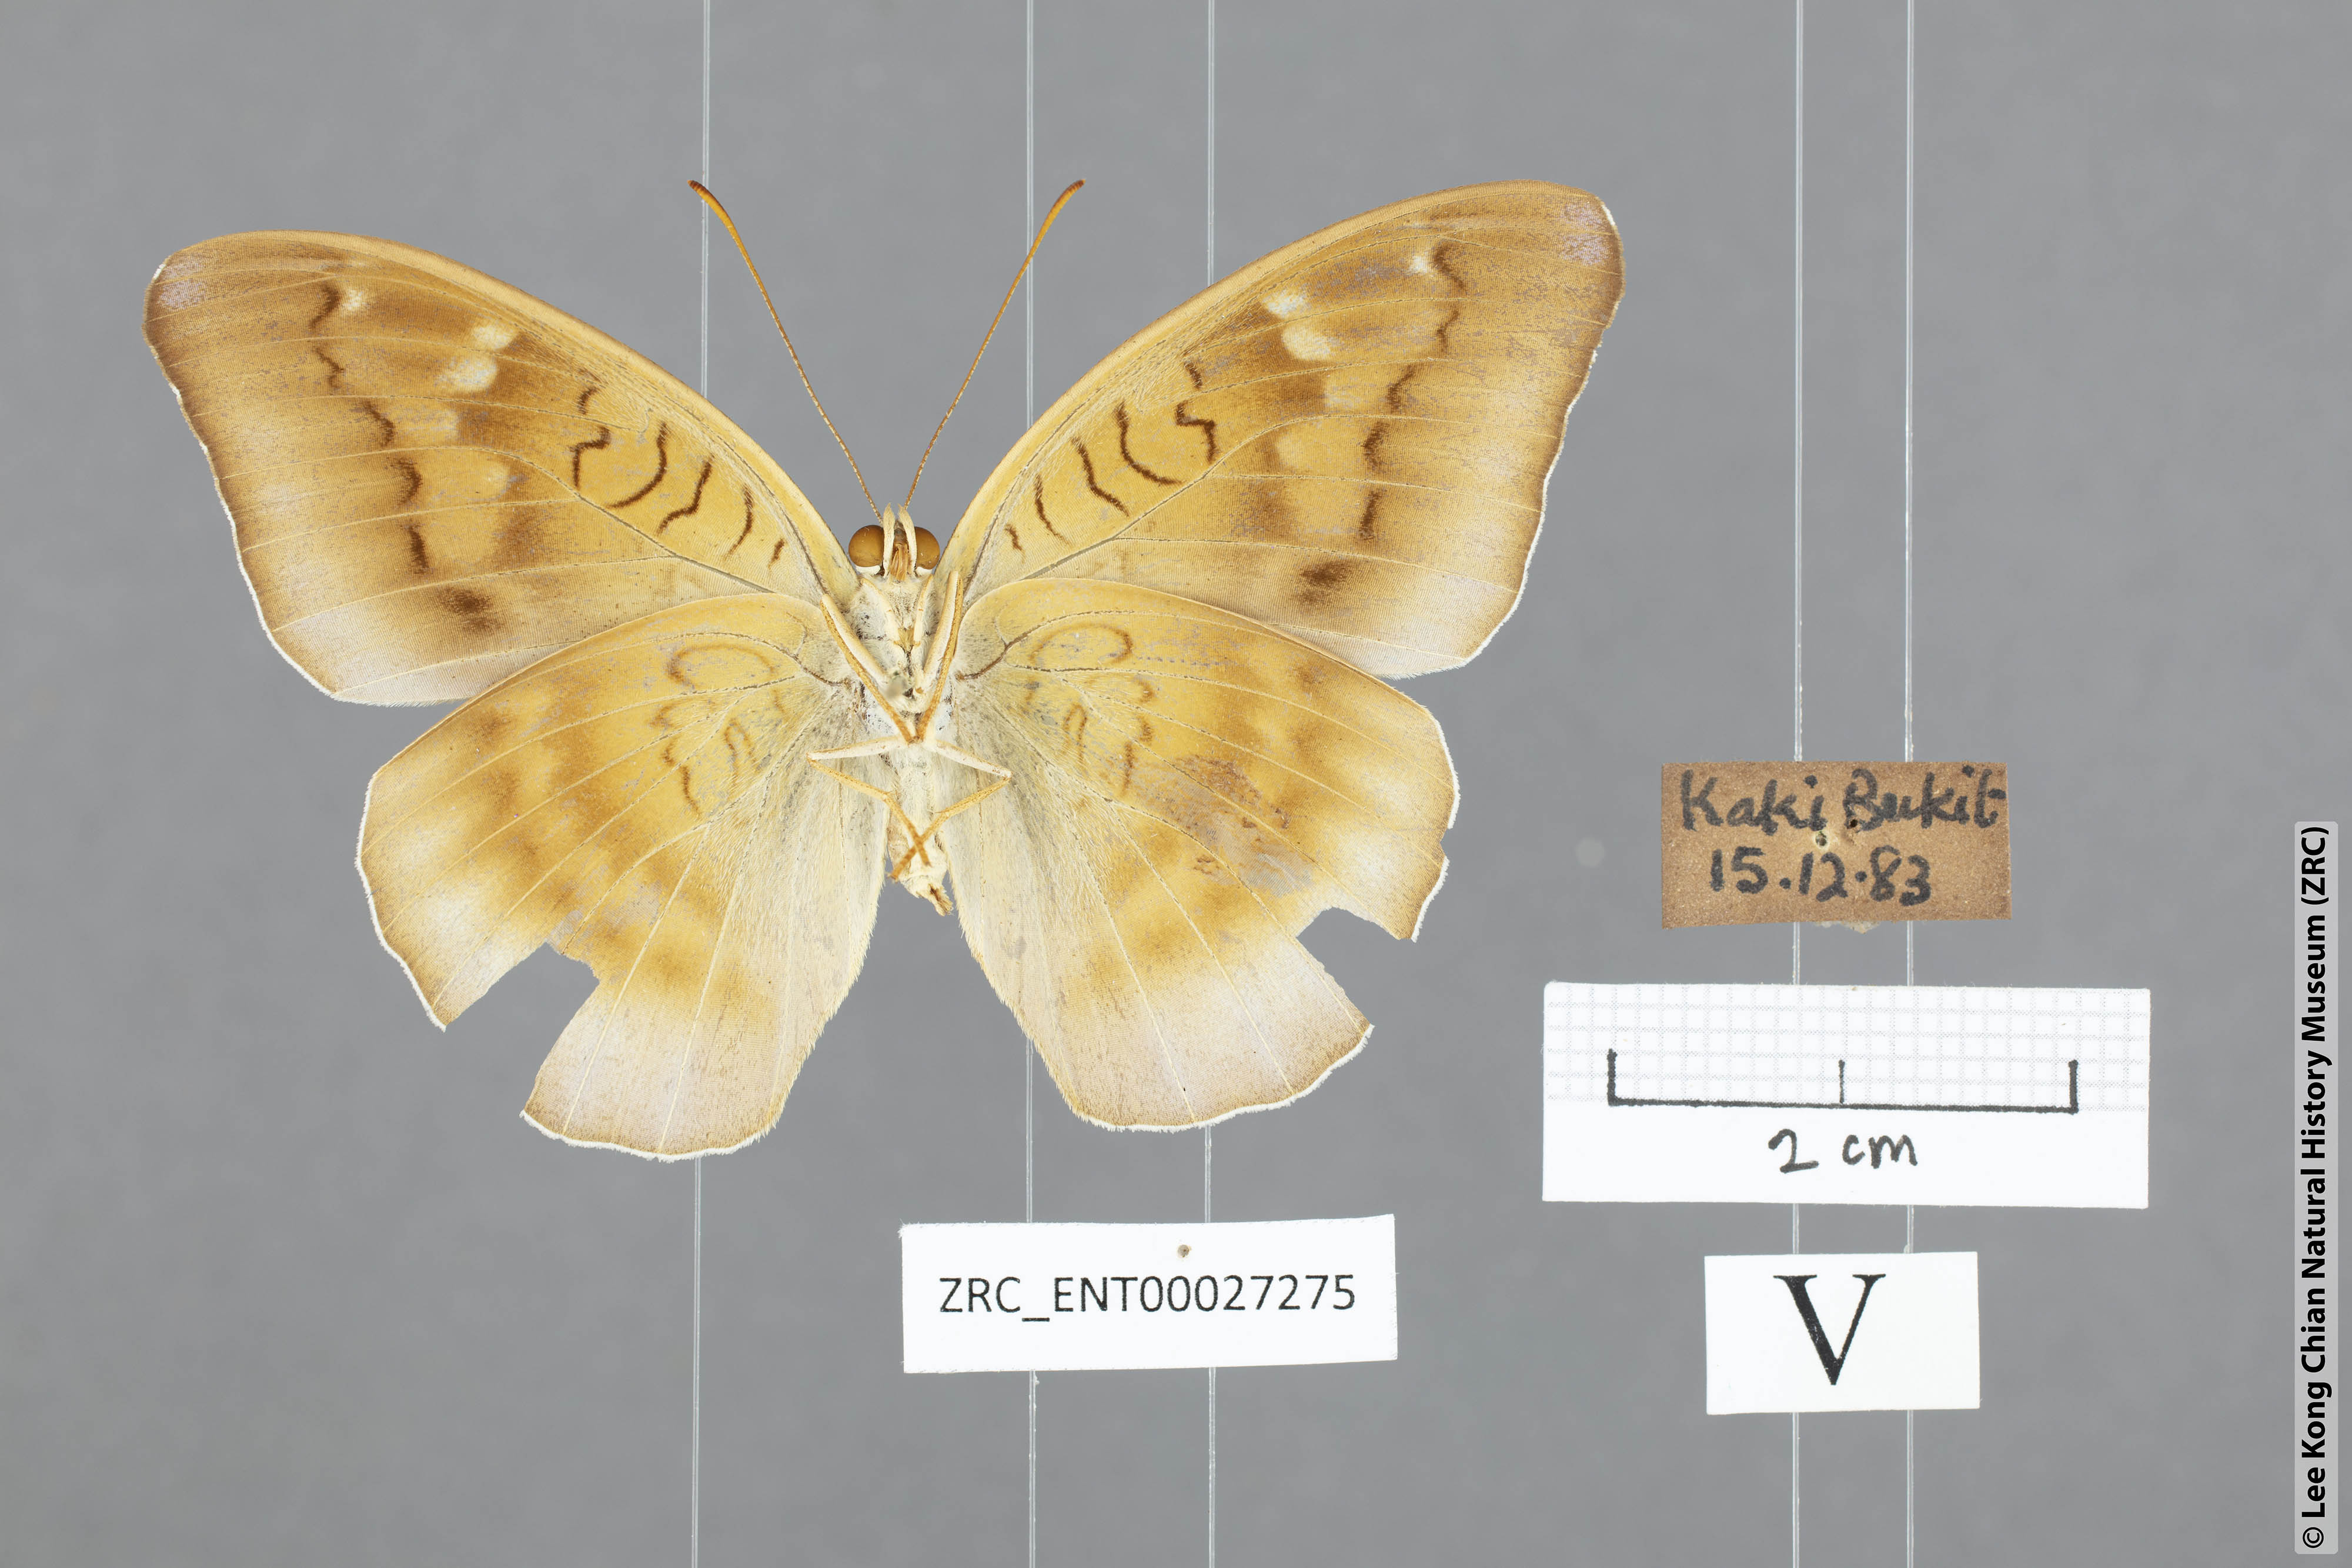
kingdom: Animalia
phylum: Arthropoda
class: Insecta
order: Lepidoptera
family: Nymphalidae
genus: Tanaecia
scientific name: Tanaecia flora
